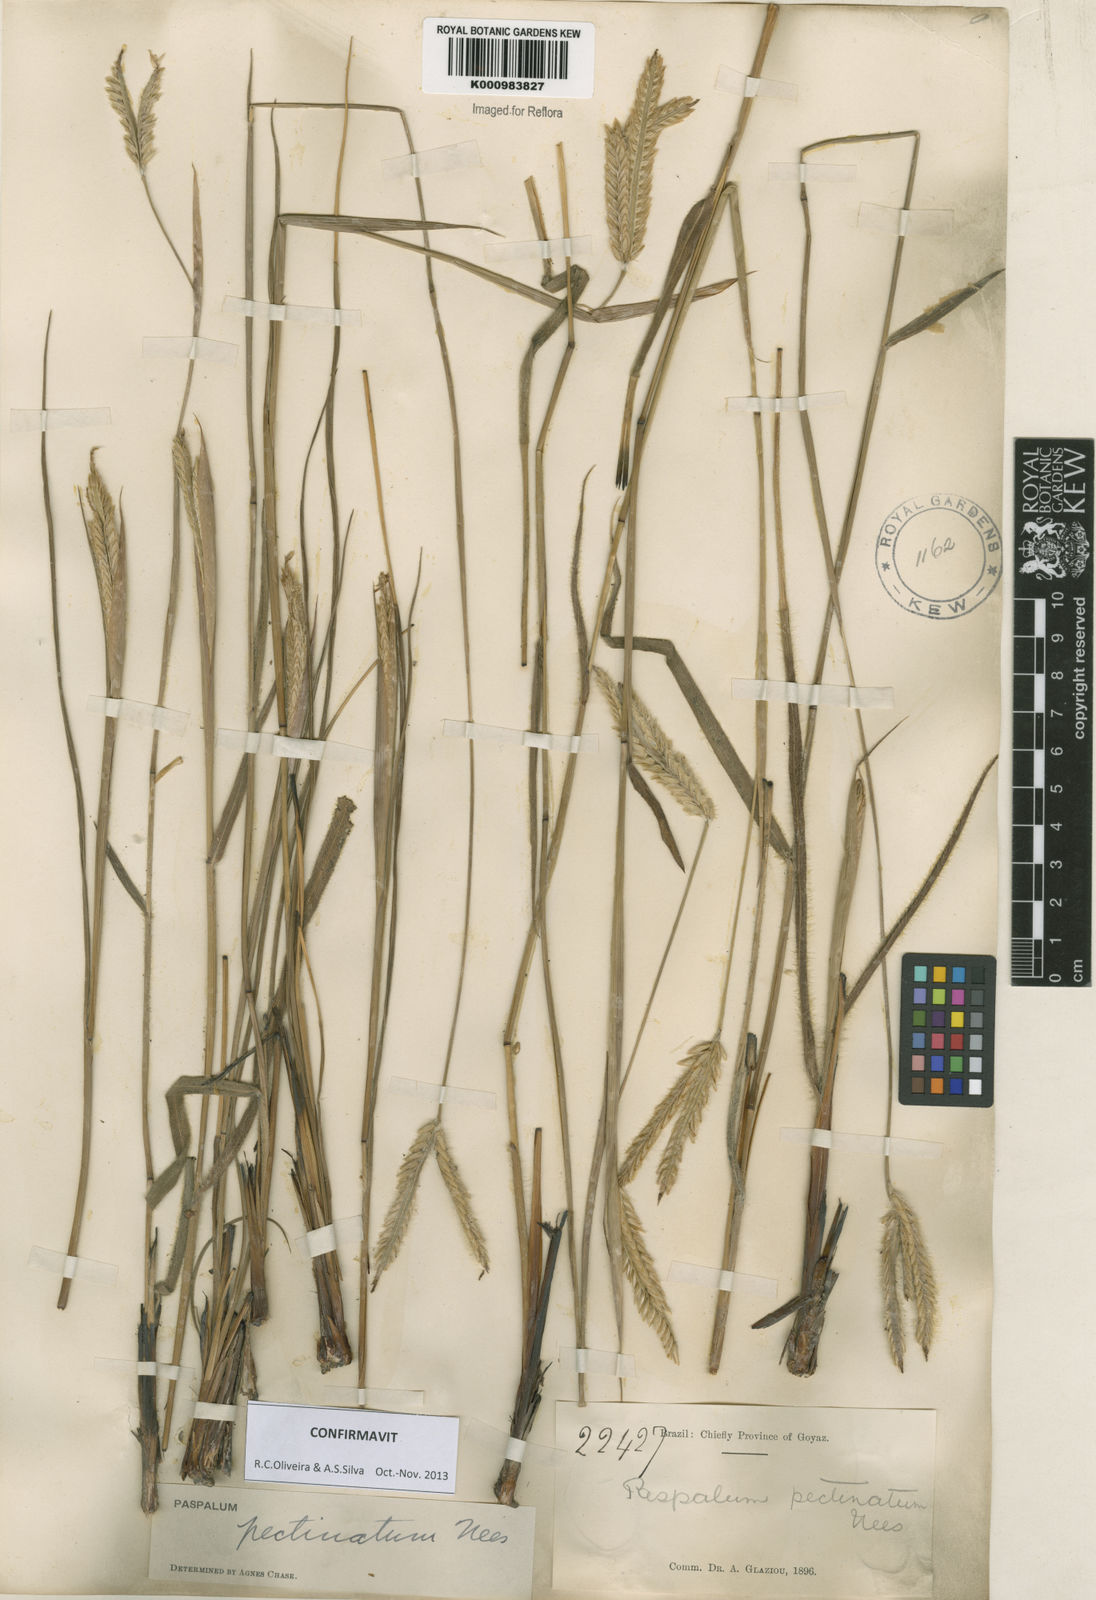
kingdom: Plantae
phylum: Tracheophyta
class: Liliopsida
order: Poales
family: Poaceae
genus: Paspalum
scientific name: Paspalum
